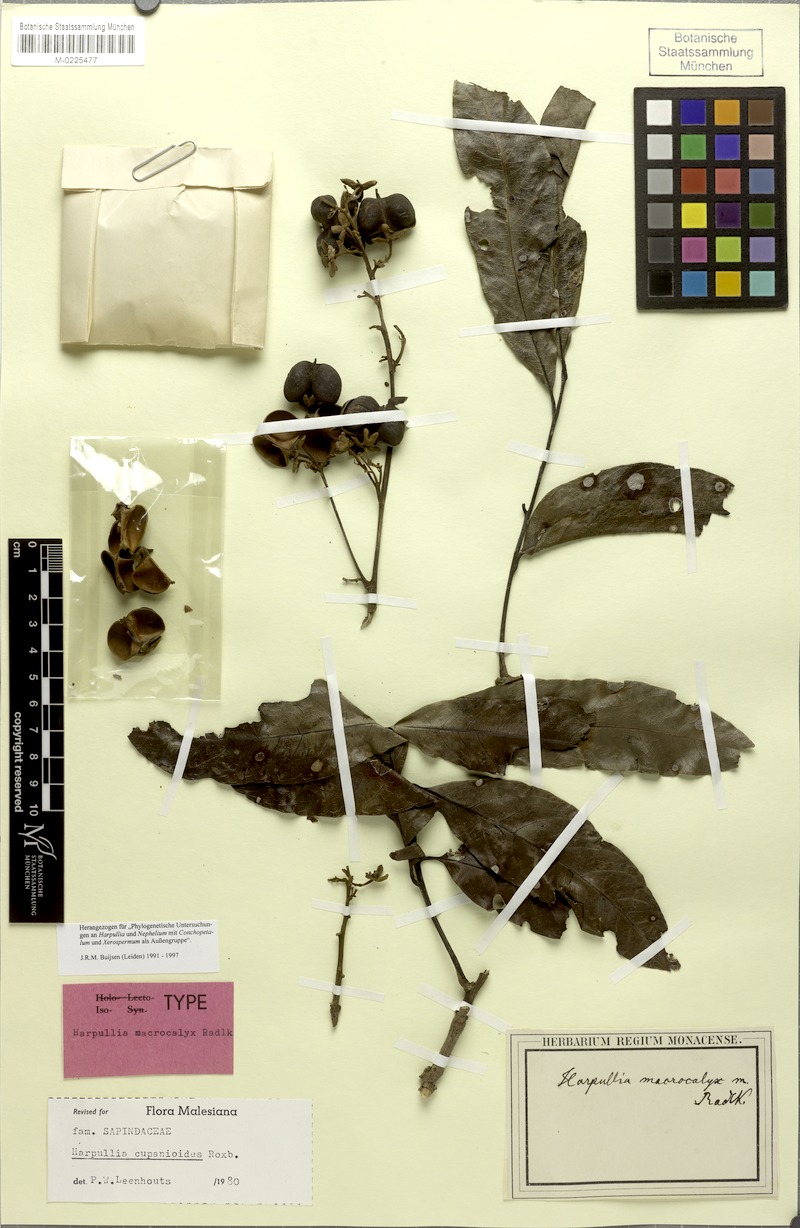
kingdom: Plantae
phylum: Tracheophyta
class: Magnoliopsida
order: Sapindales
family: Sapindaceae
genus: Harpullia
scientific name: Harpullia cupanioides
